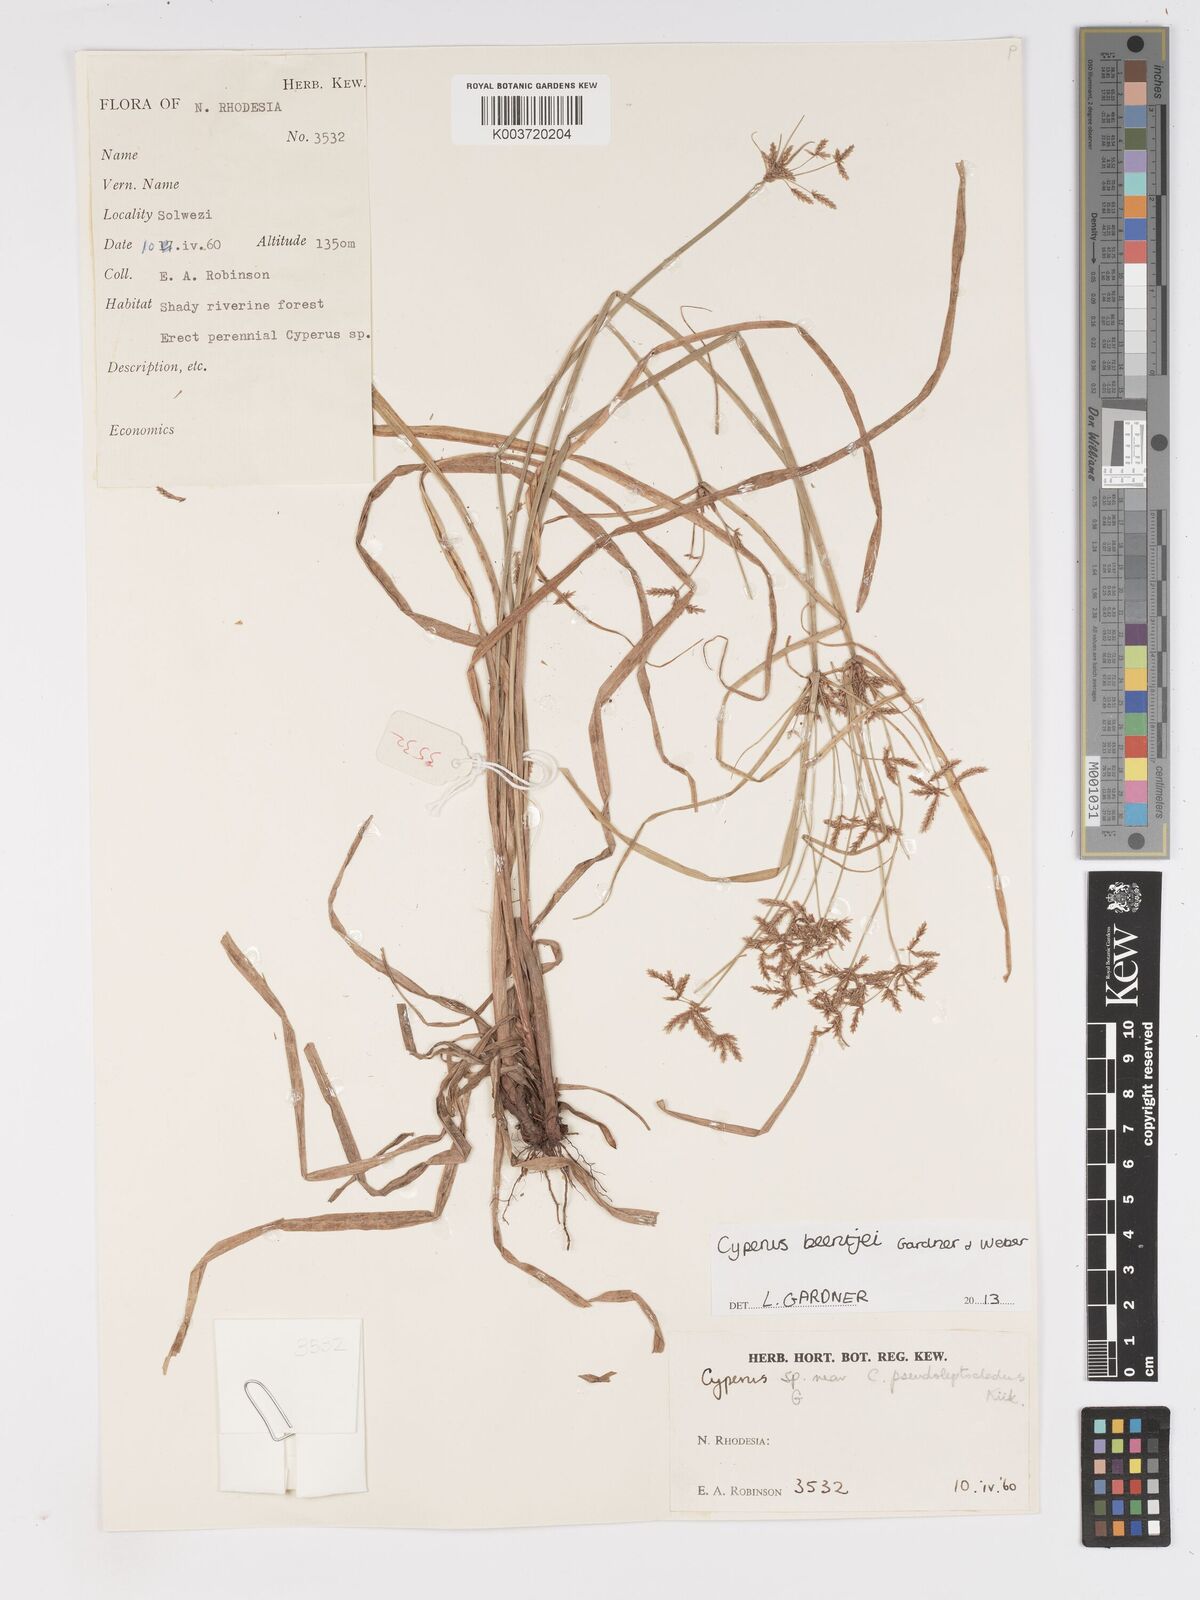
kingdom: Plantae
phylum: Tracheophyta
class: Liliopsida
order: Poales
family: Cyperaceae
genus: Cyperus
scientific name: Cyperus beentjei
